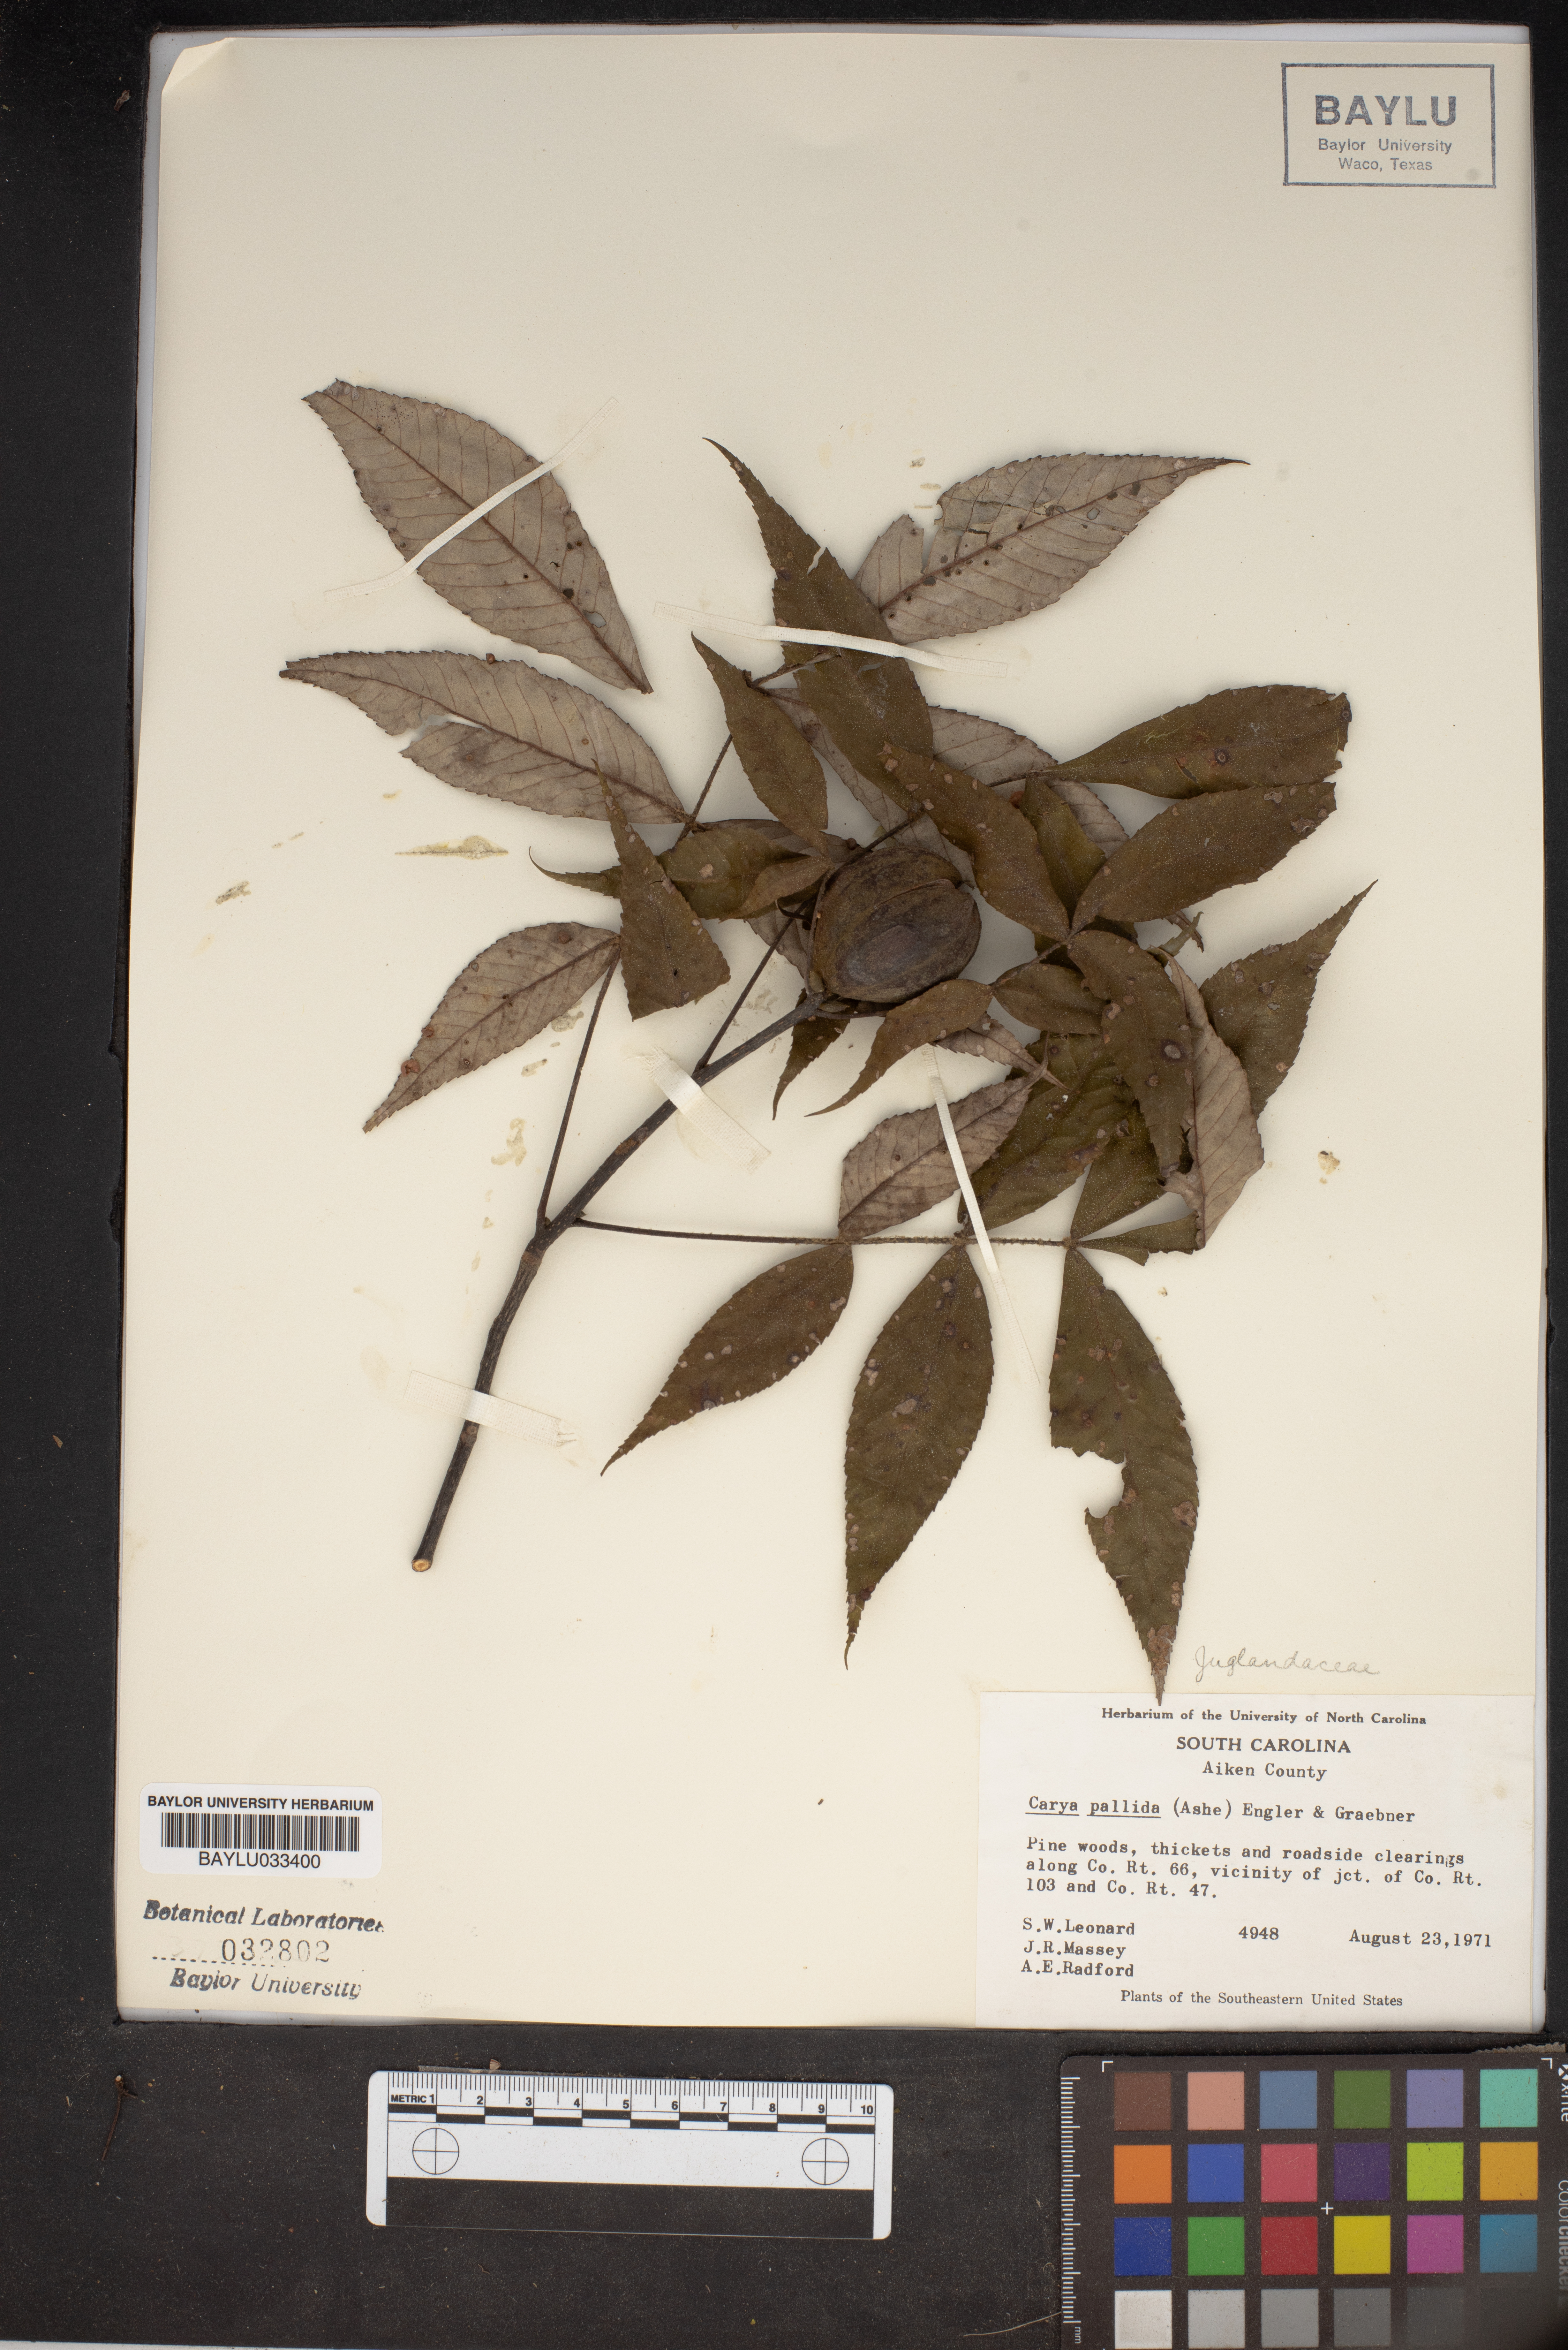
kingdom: Plantae
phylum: Tracheophyta
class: Magnoliopsida
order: Fagales
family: Juglandaceae
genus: Carya
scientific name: Carya pallida
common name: Sand hickory
